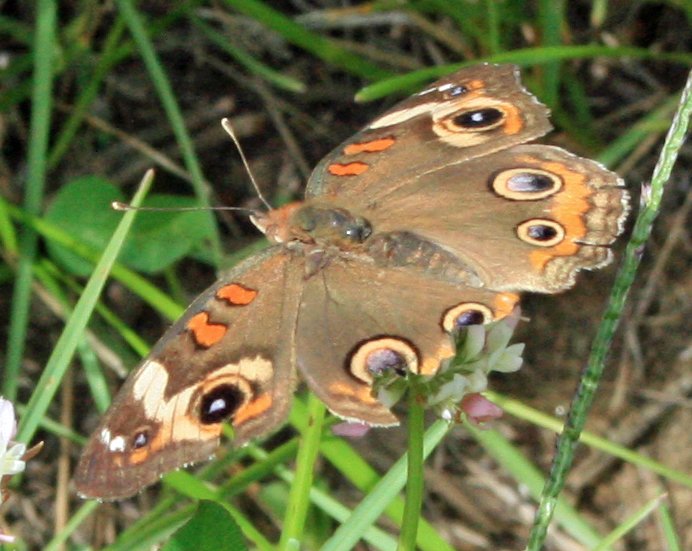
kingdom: Animalia
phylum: Arthropoda
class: Insecta
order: Lepidoptera
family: Nymphalidae
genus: Junonia
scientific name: Junonia coenia
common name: Common Buckeye
